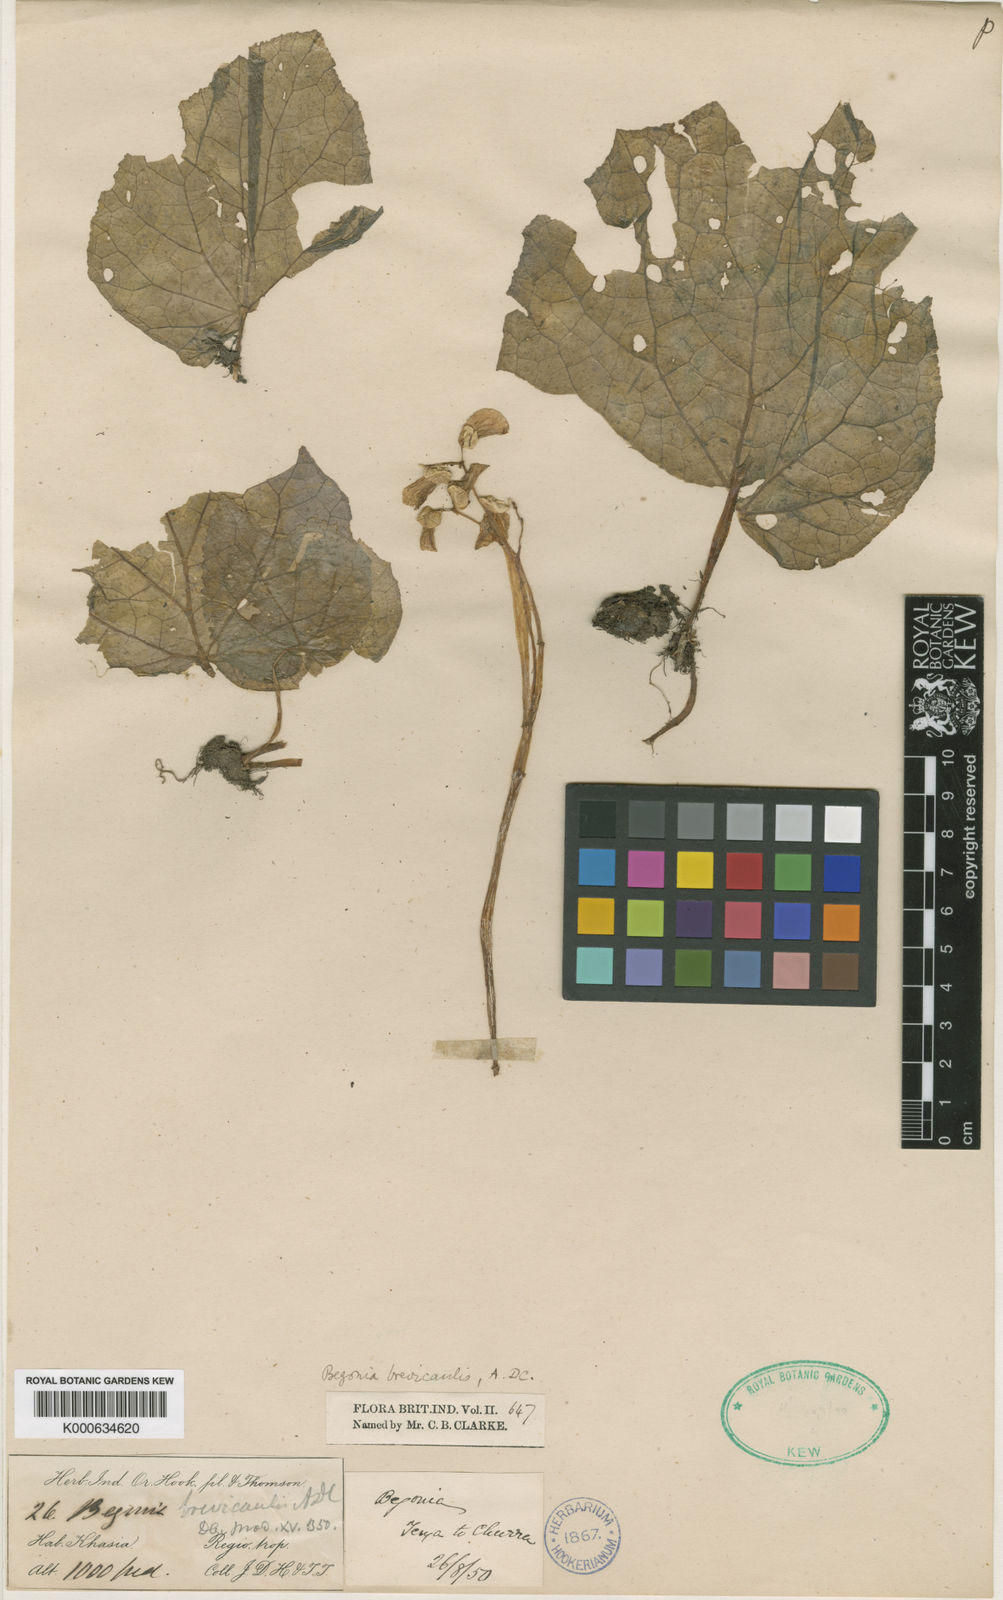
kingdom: Plantae
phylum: Tracheophyta
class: Magnoliopsida
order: Cucurbitales
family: Begoniaceae
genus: Begonia
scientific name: Begonia brevicaulis
